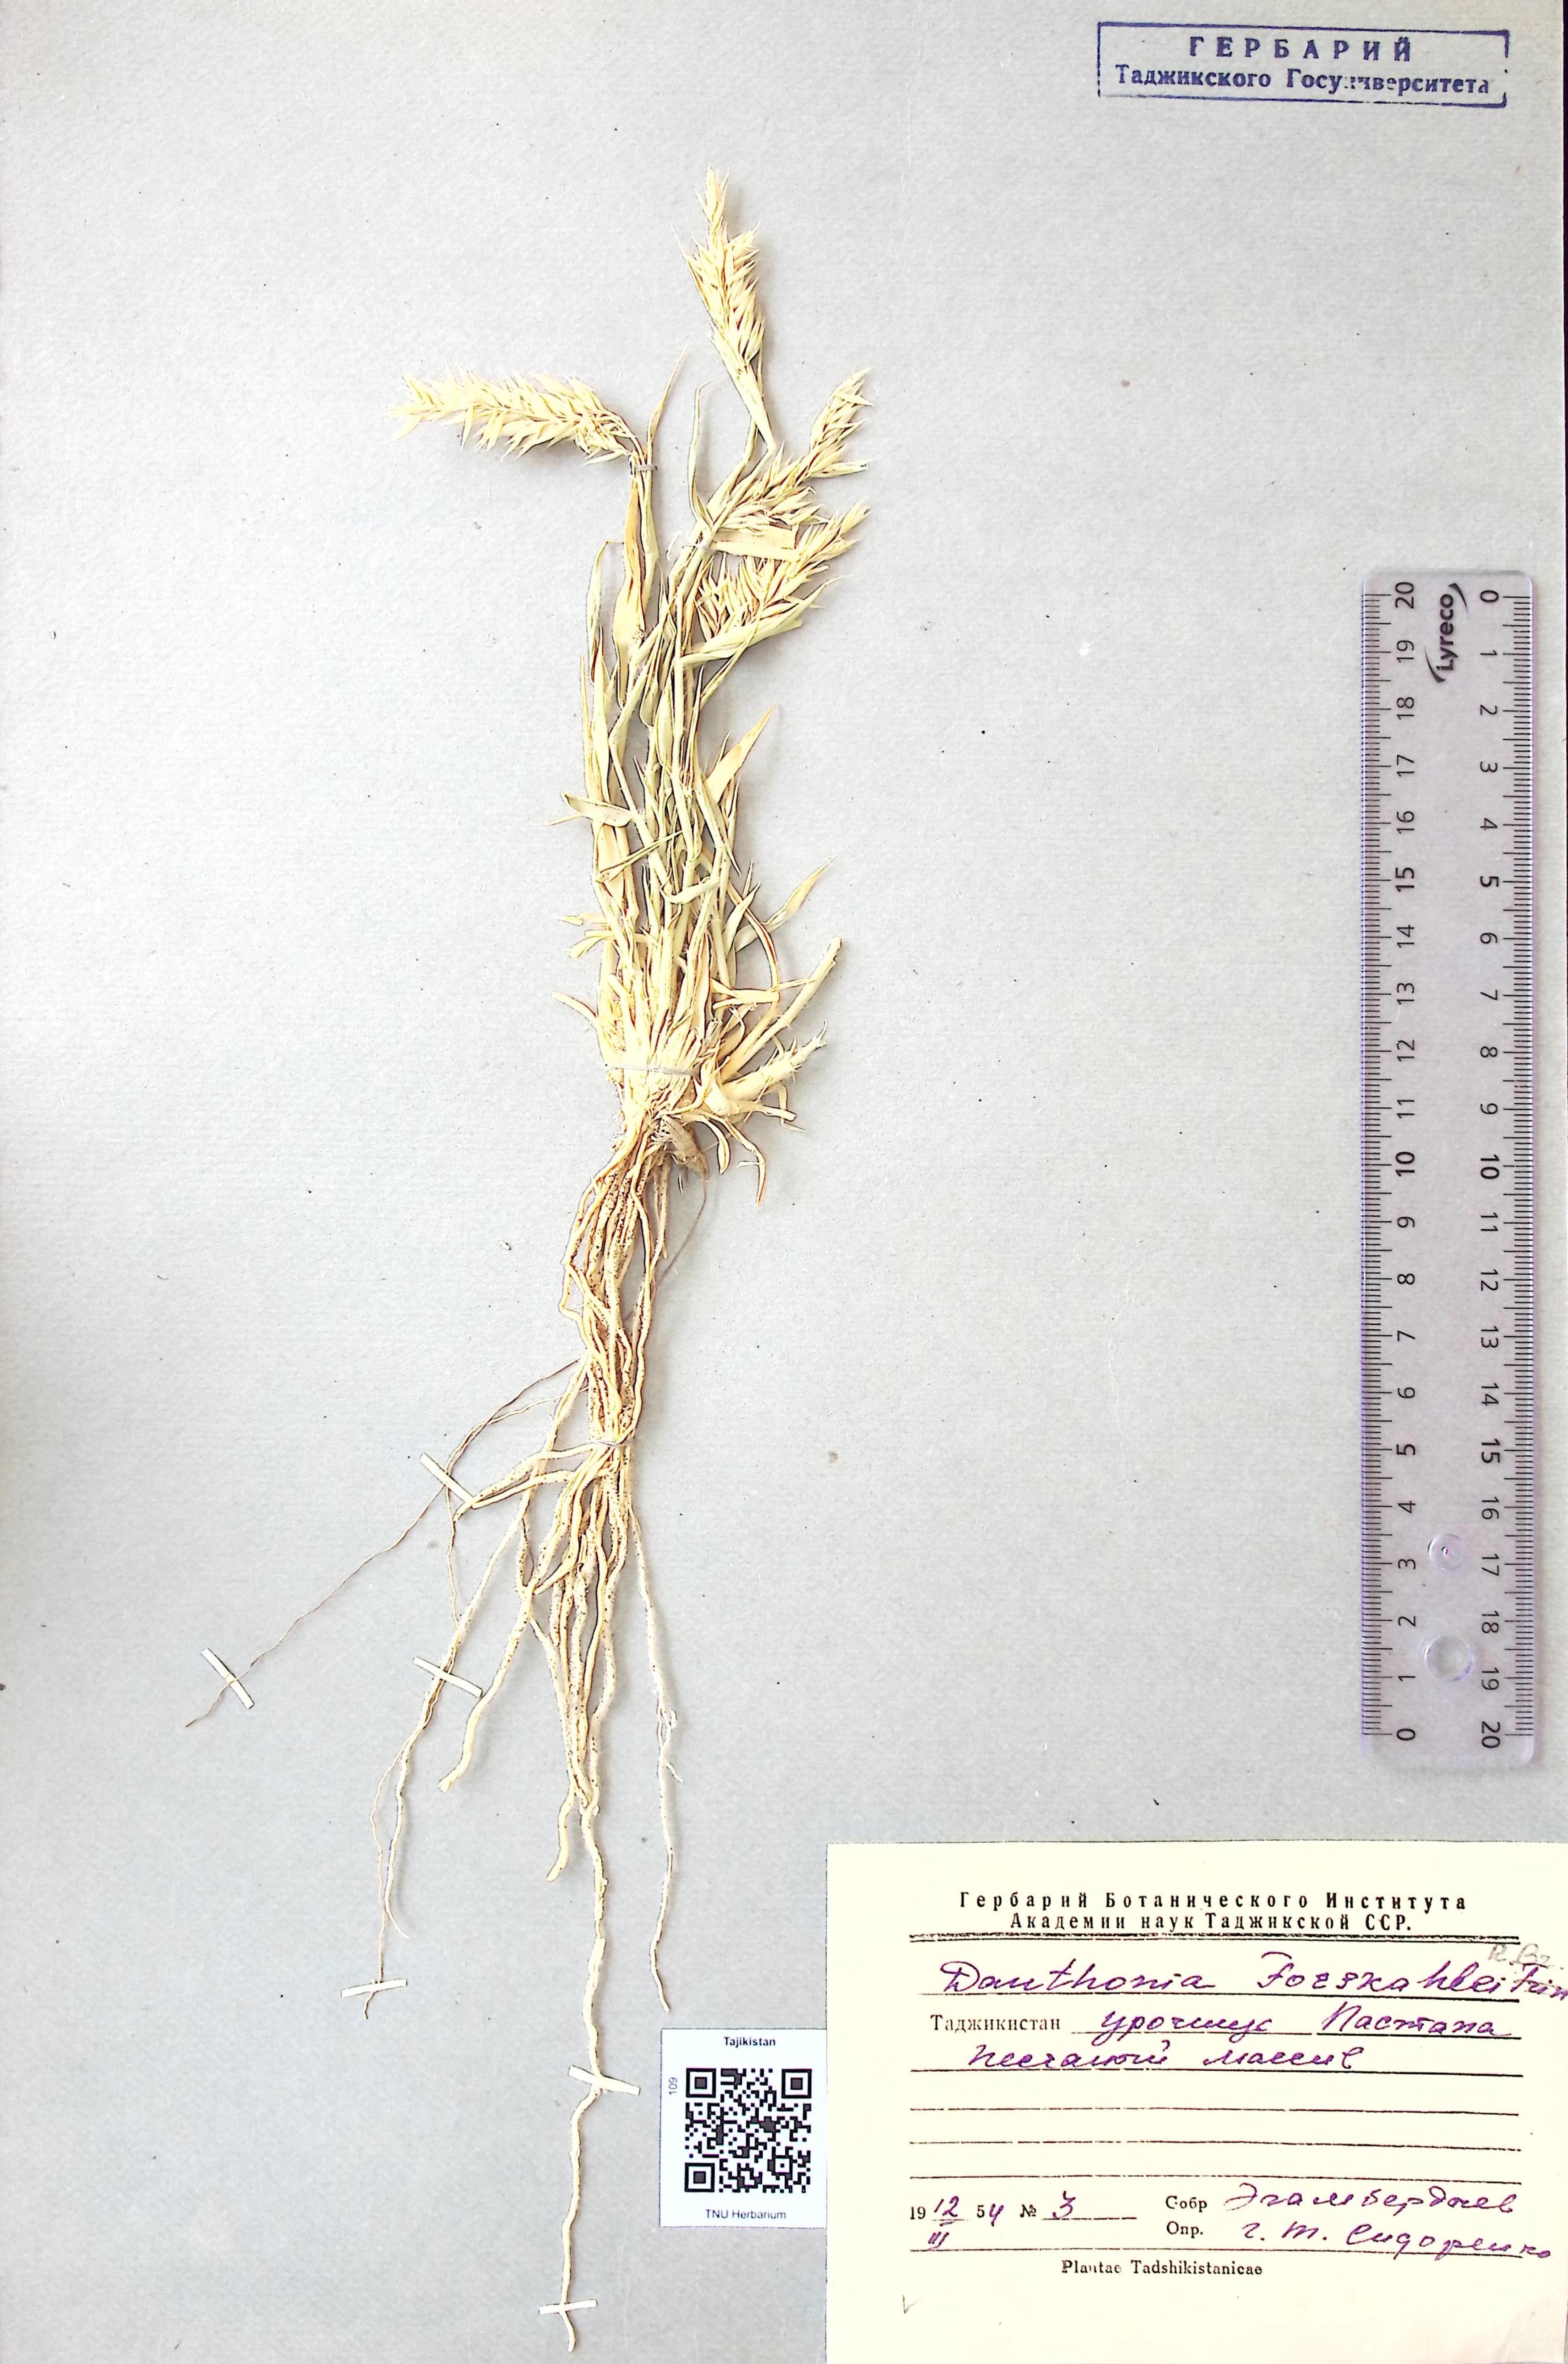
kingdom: Plantae
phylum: Tracheophyta
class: Liliopsida
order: Poales
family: Poaceae
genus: Centropodia
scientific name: Centropodia
